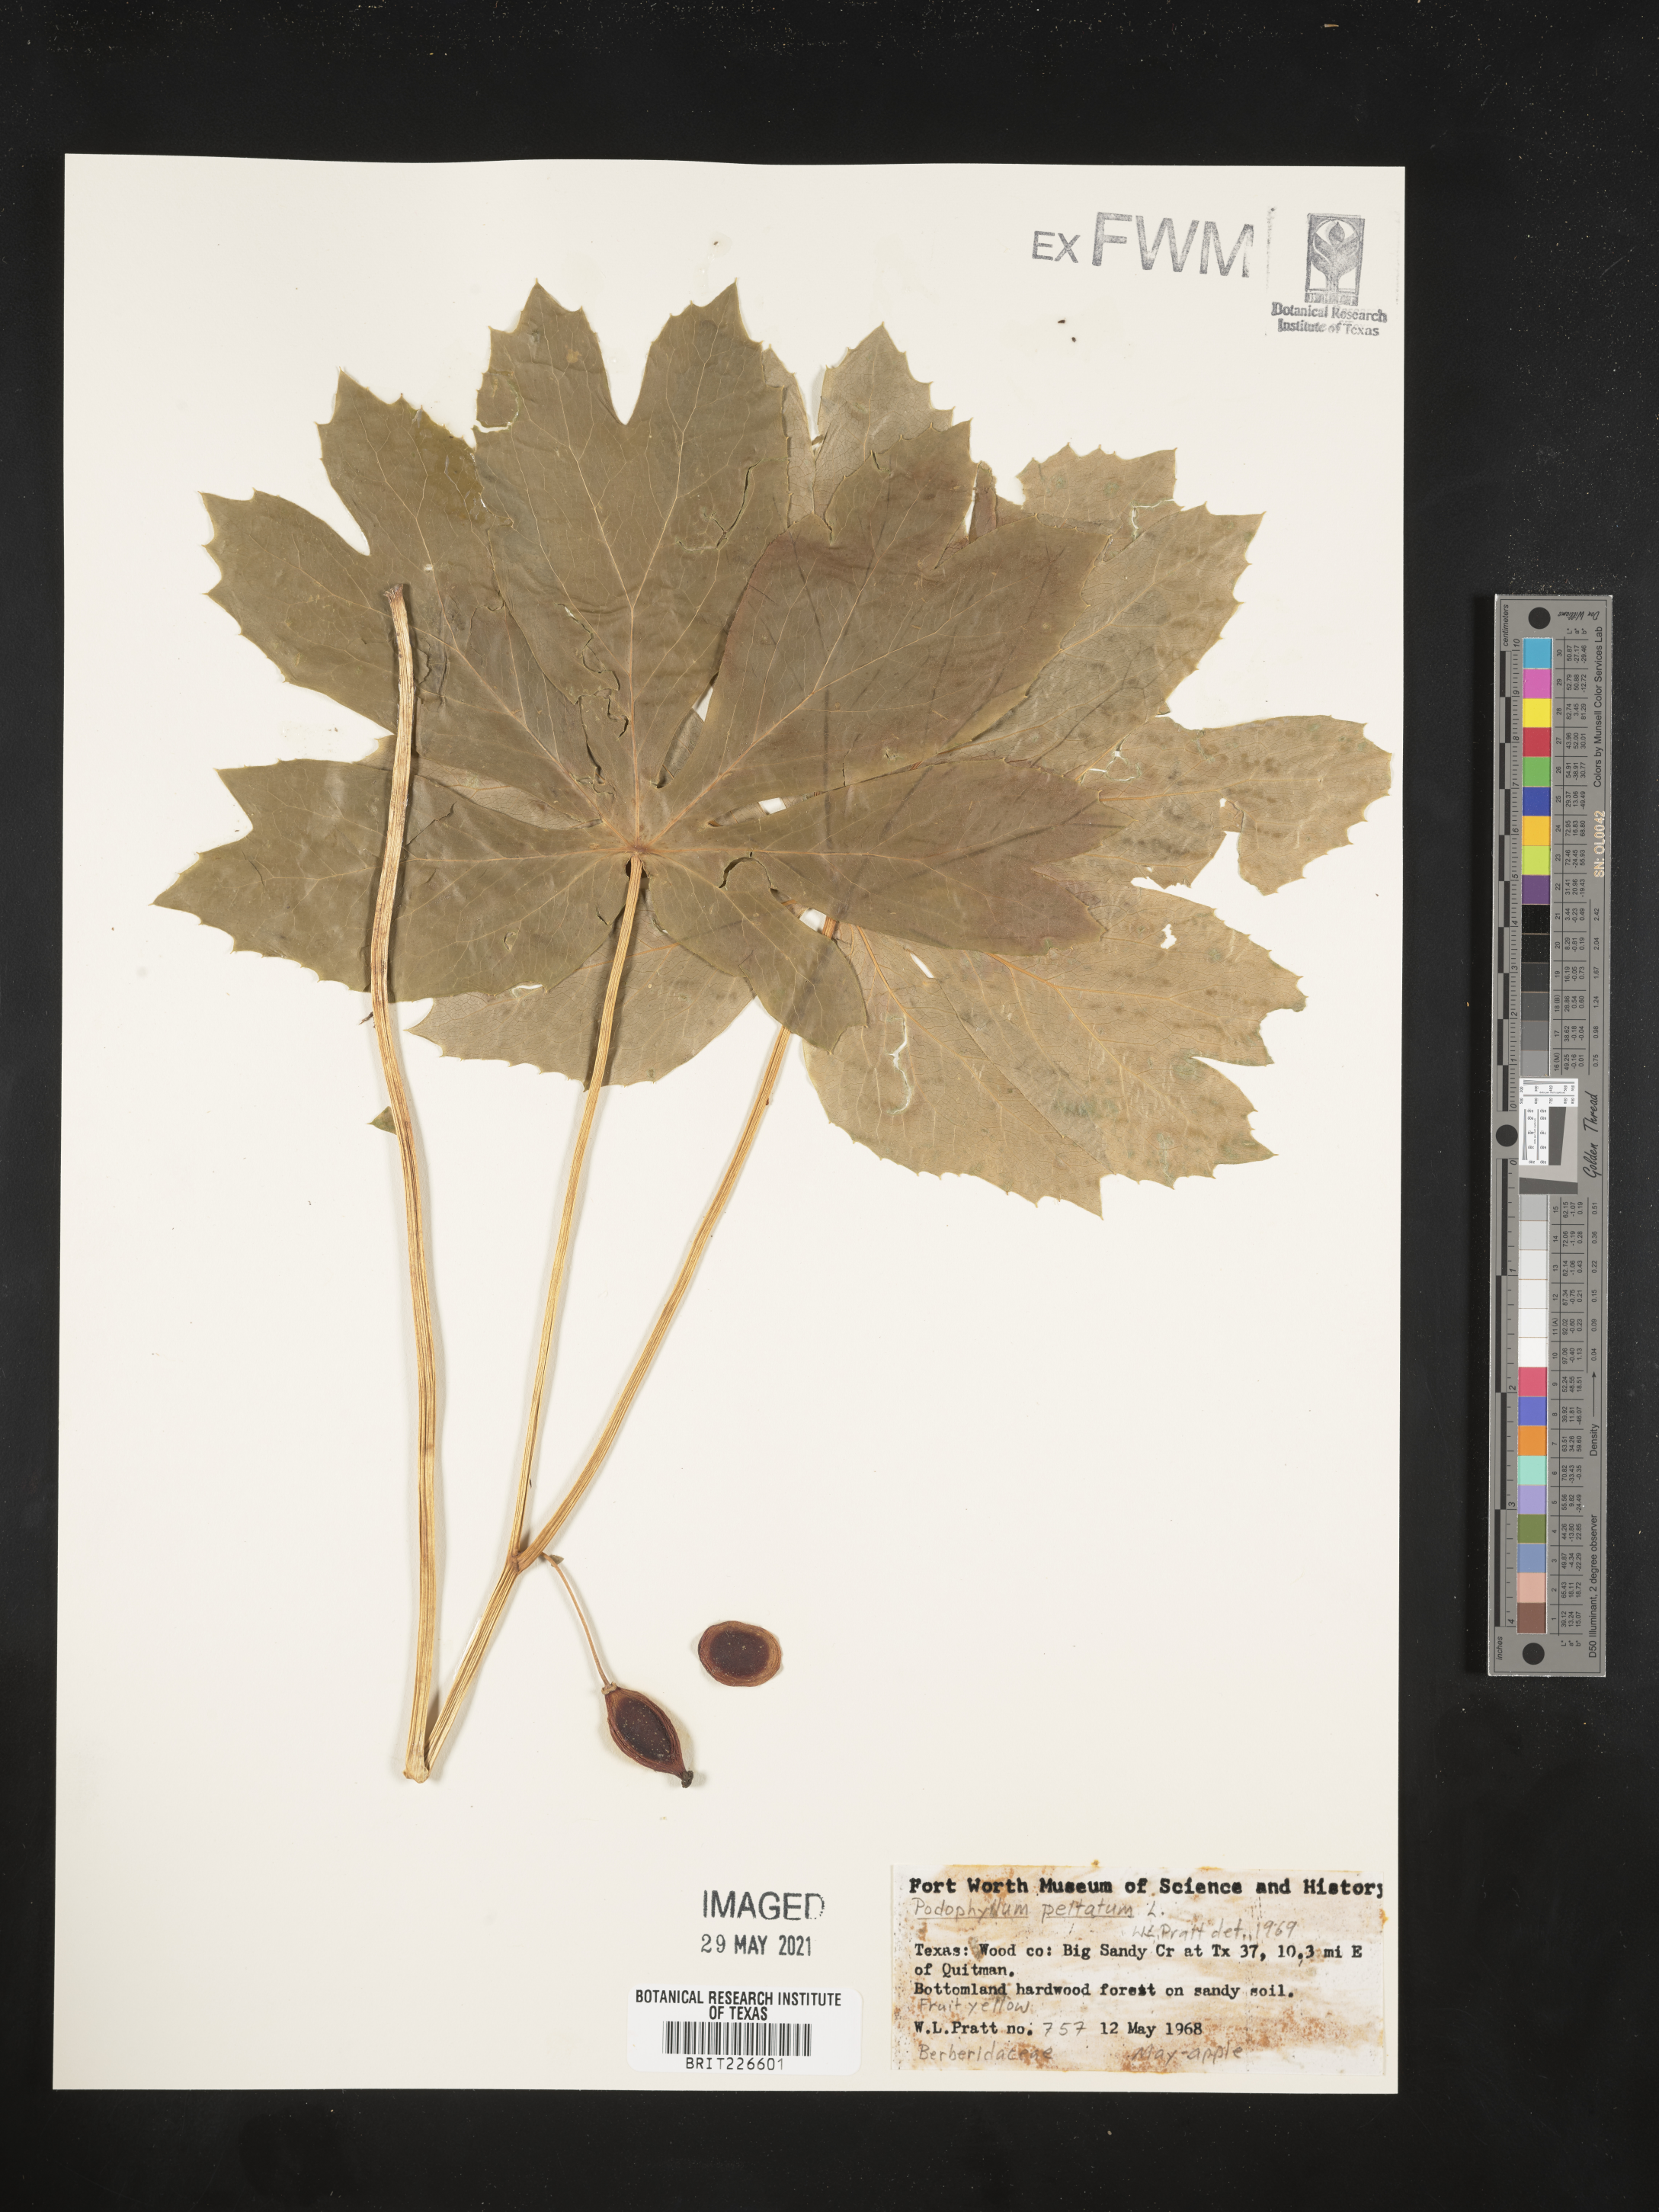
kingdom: Plantae
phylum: Tracheophyta
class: Magnoliopsida
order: Ranunculales
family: Berberidaceae
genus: Podophyllum
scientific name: Podophyllum peltatum
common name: Wild mandrake
